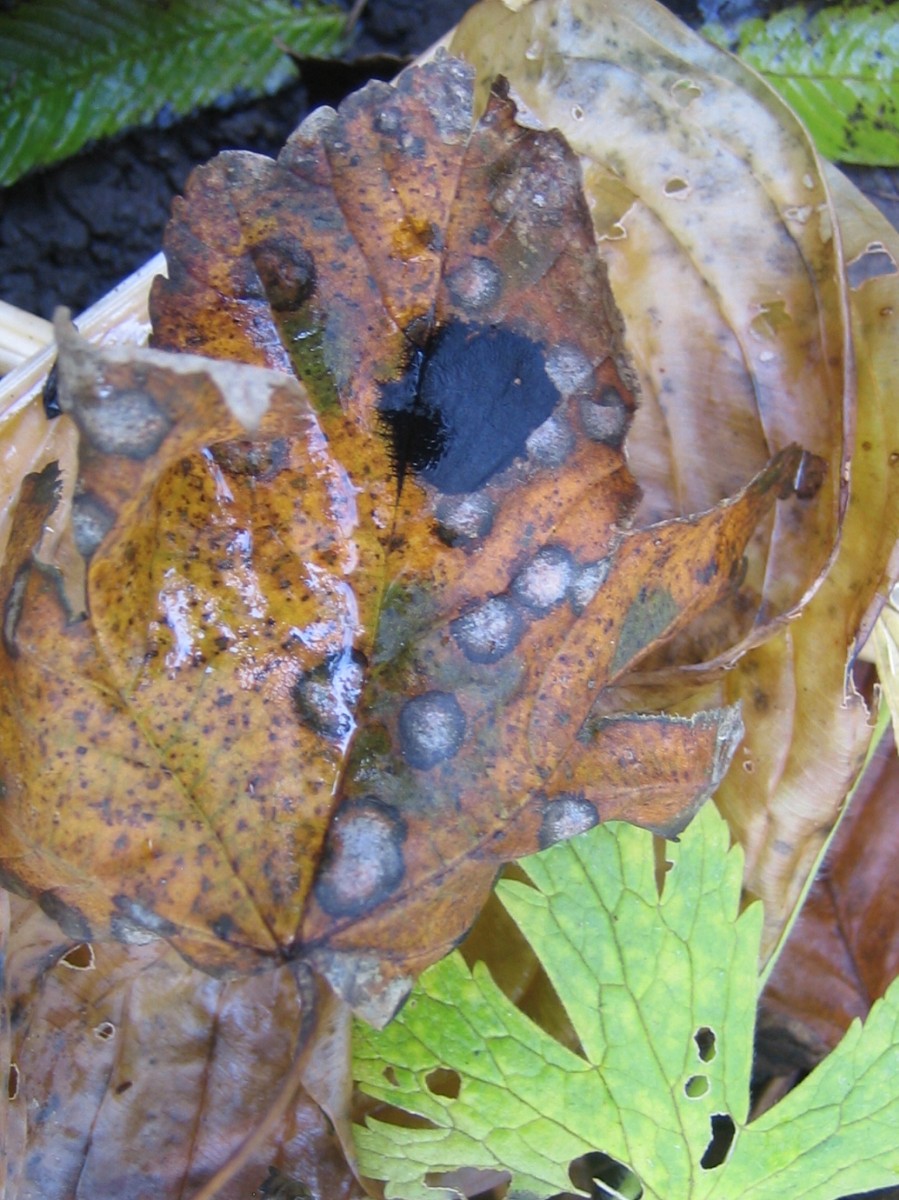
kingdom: Fungi
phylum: Ascomycota
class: Leotiomycetes
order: Rhytismatales
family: Rhytismataceae
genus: Rhytisma
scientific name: Rhytisma acerinum
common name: ahorn-rynkeplet
